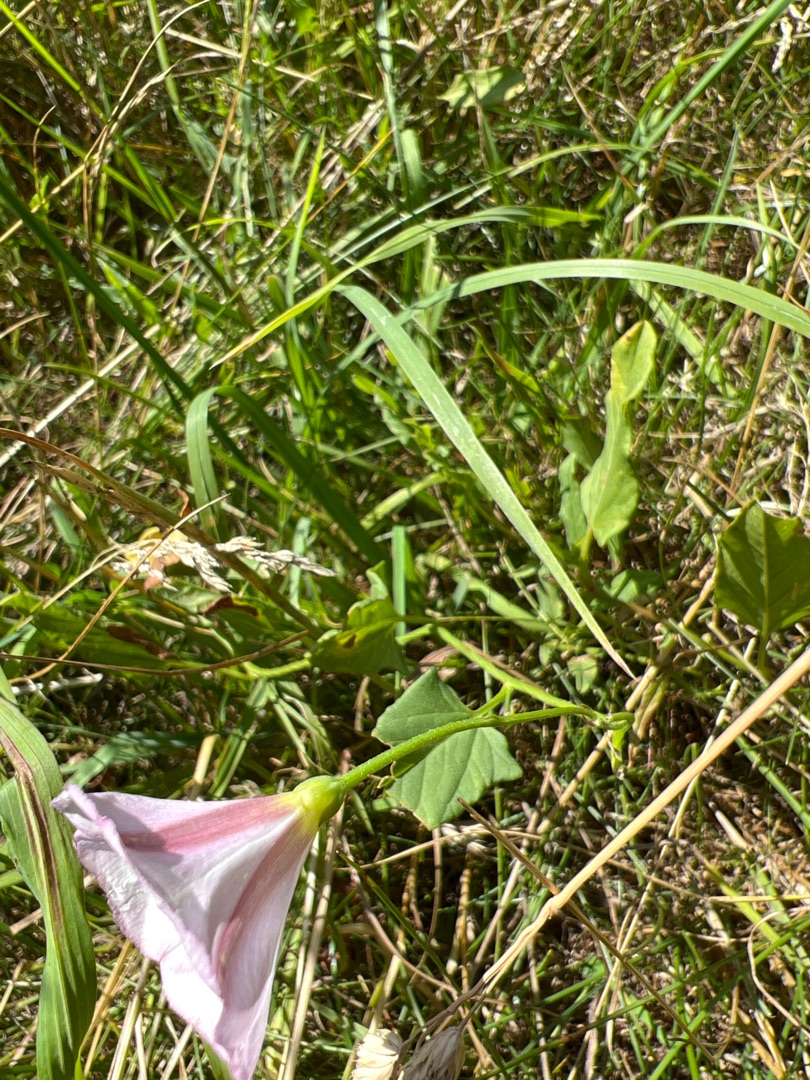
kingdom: Plantae
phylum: Tracheophyta
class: Magnoliopsida
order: Solanales
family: Convolvulaceae
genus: Convolvulus
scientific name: Convolvulus arvensis
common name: Ager-snerle
